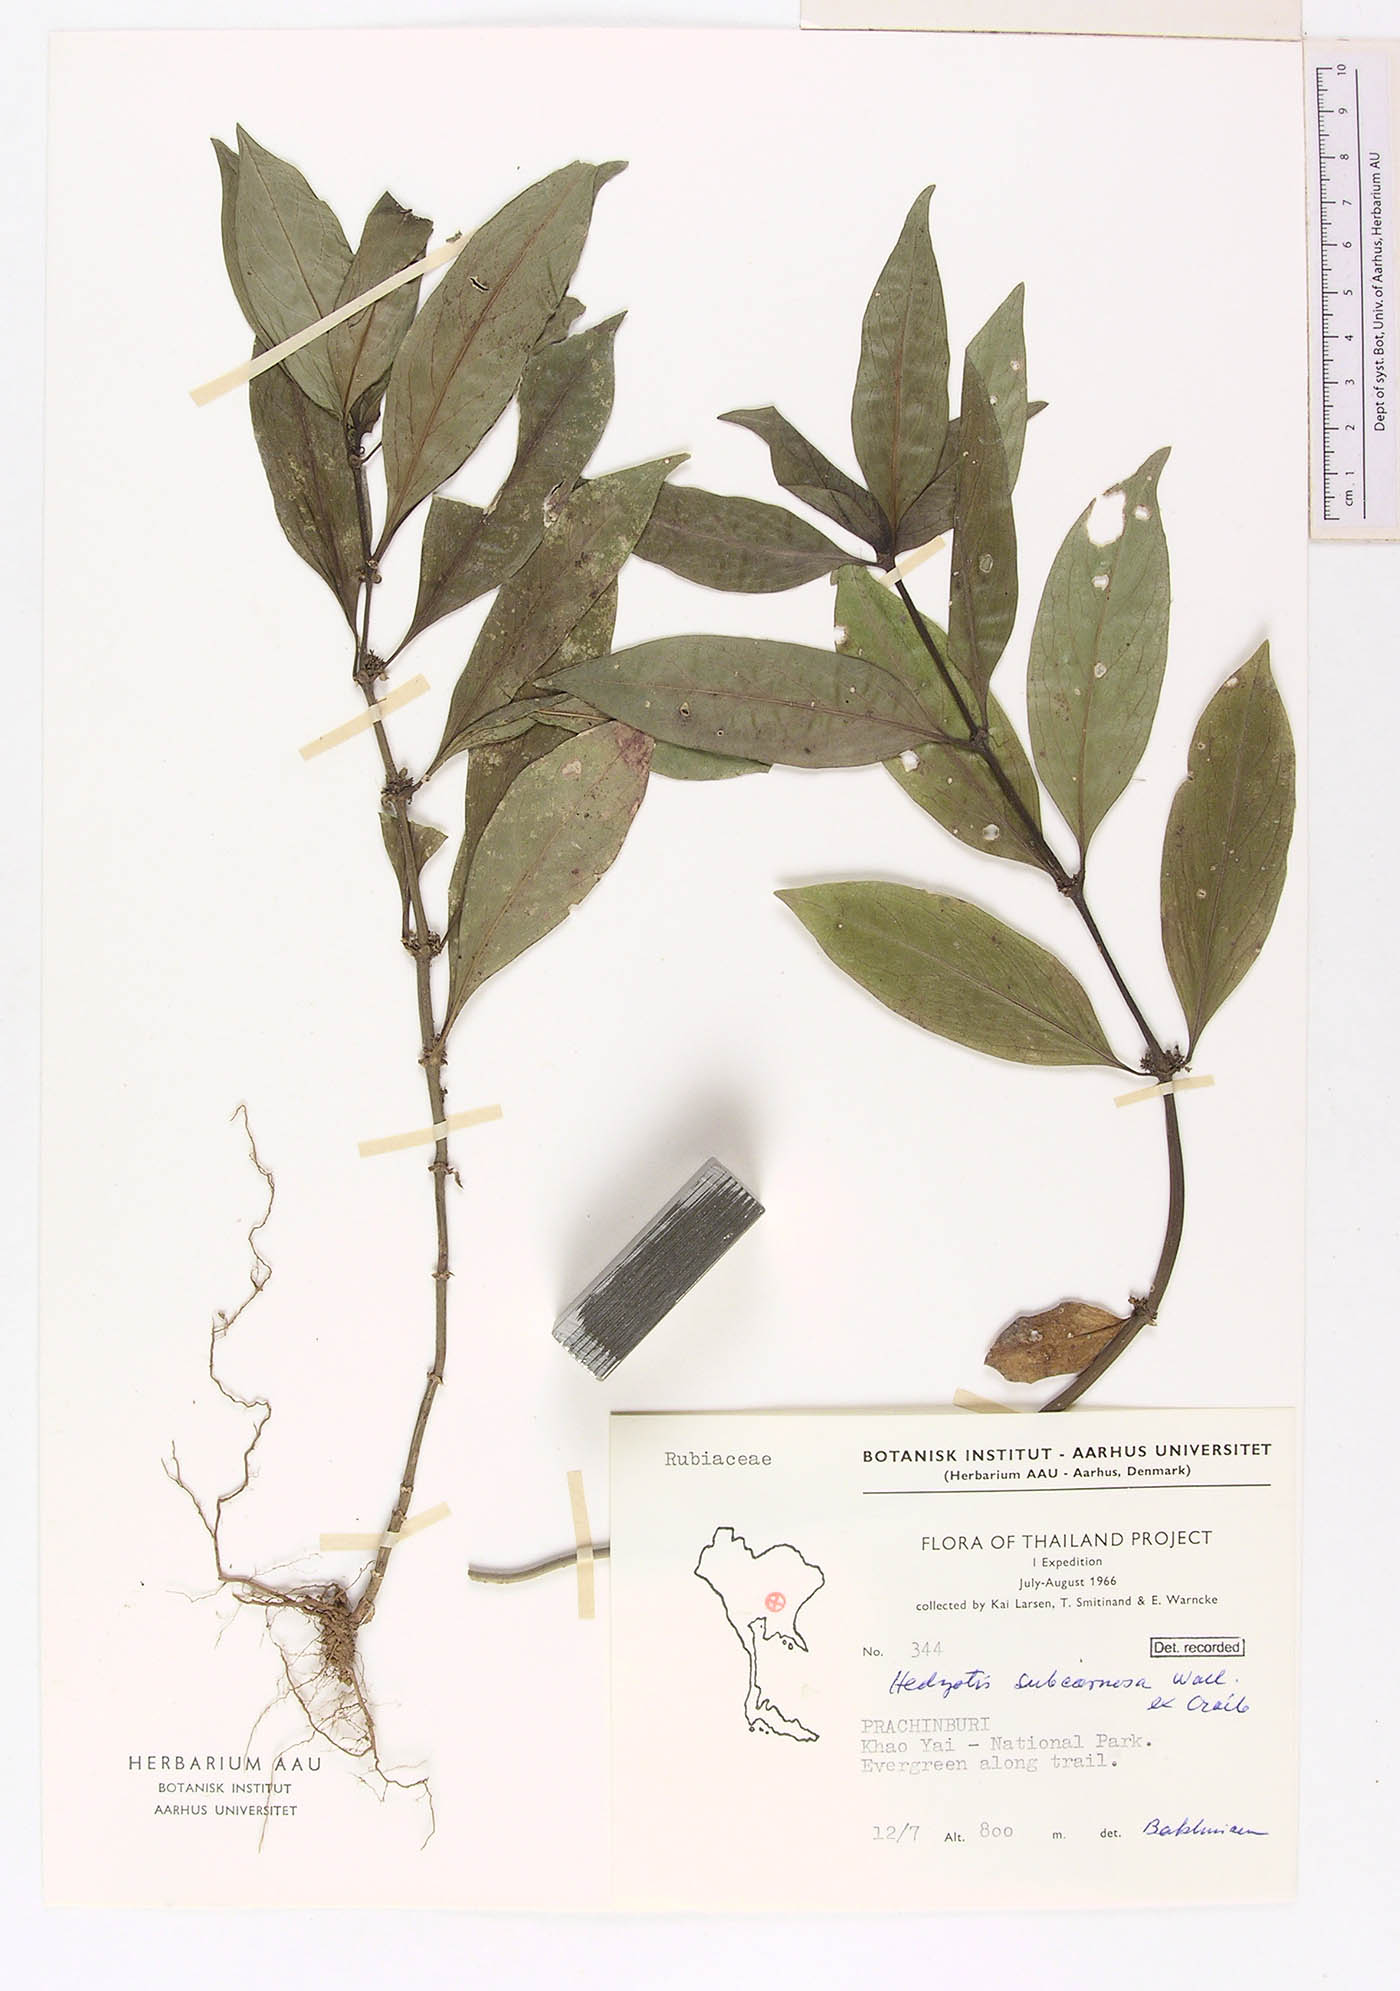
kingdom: Plantae
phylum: Tracheophyta
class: Magnoliopsida
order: Gentianales
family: Rubiaceae
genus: Hedyotis
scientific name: Hedyotis subcarnosa
